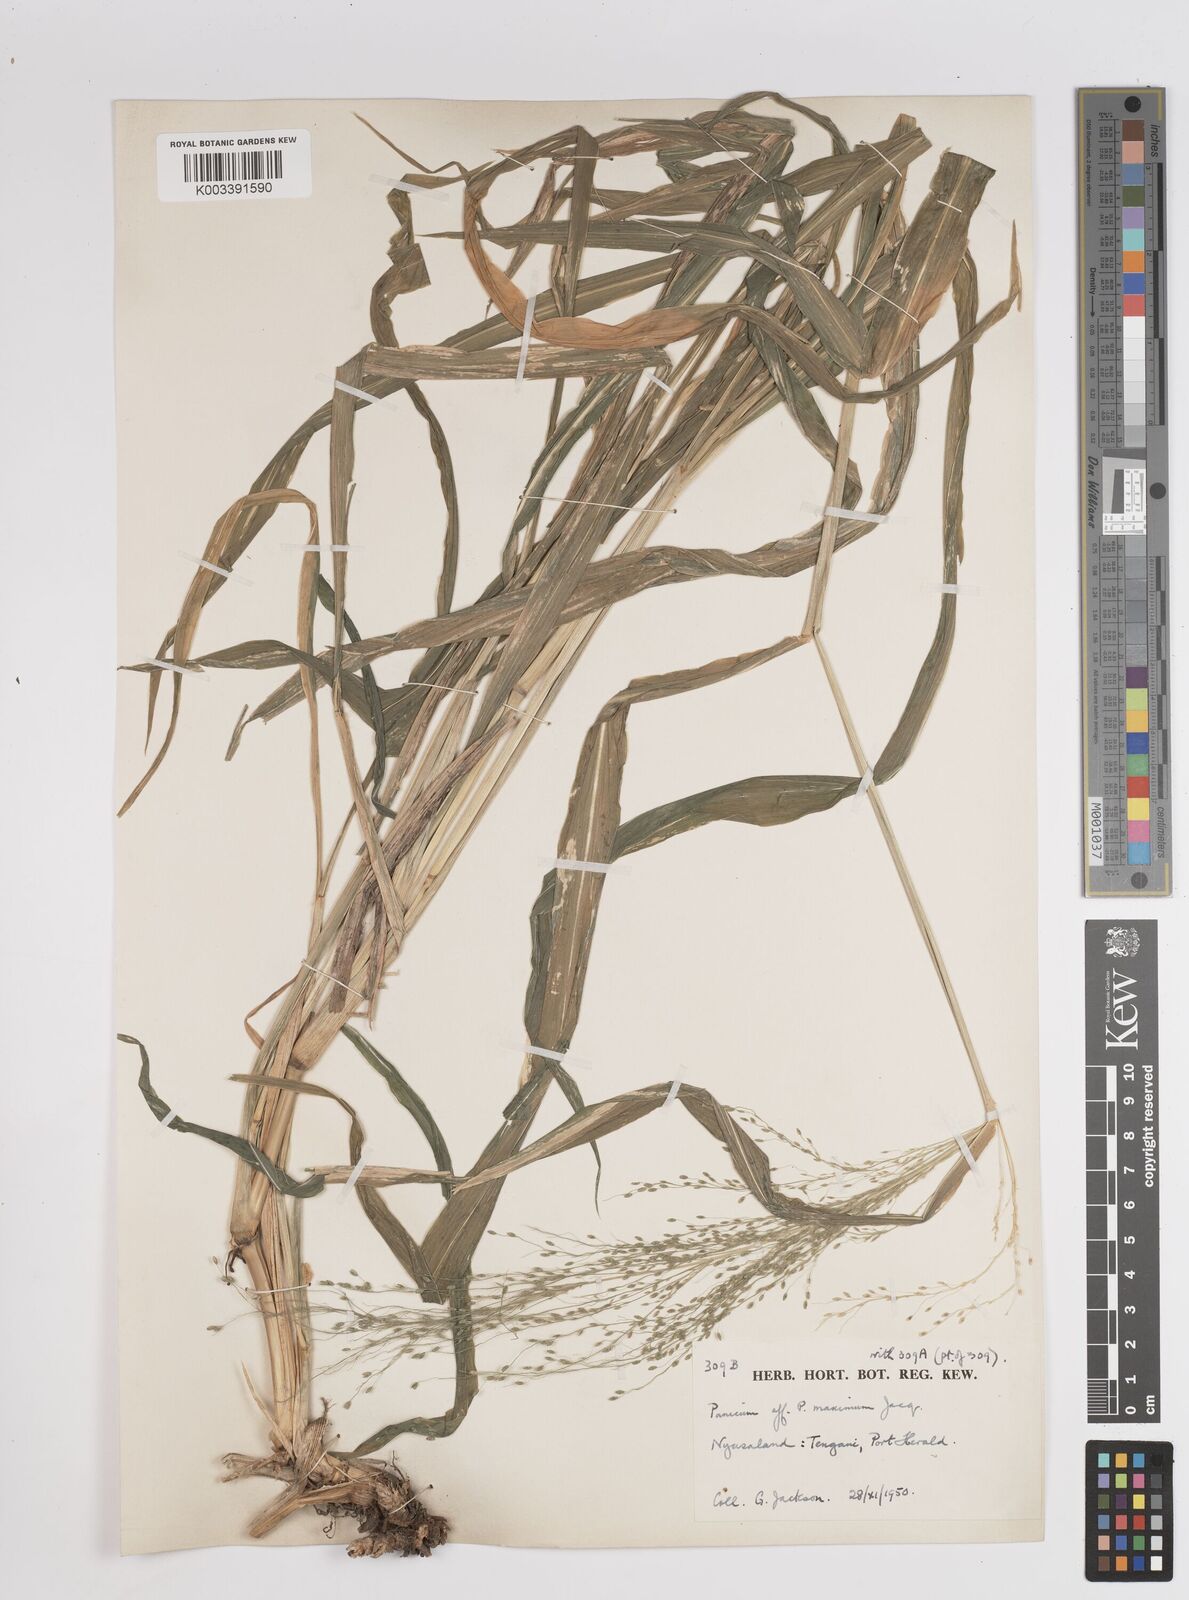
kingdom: Plantae
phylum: Tracheophyta
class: Liliopsida
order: Poales
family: Poaceae
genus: Megathyrsus
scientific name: Megathyrsus maximus
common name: Guineagrass
